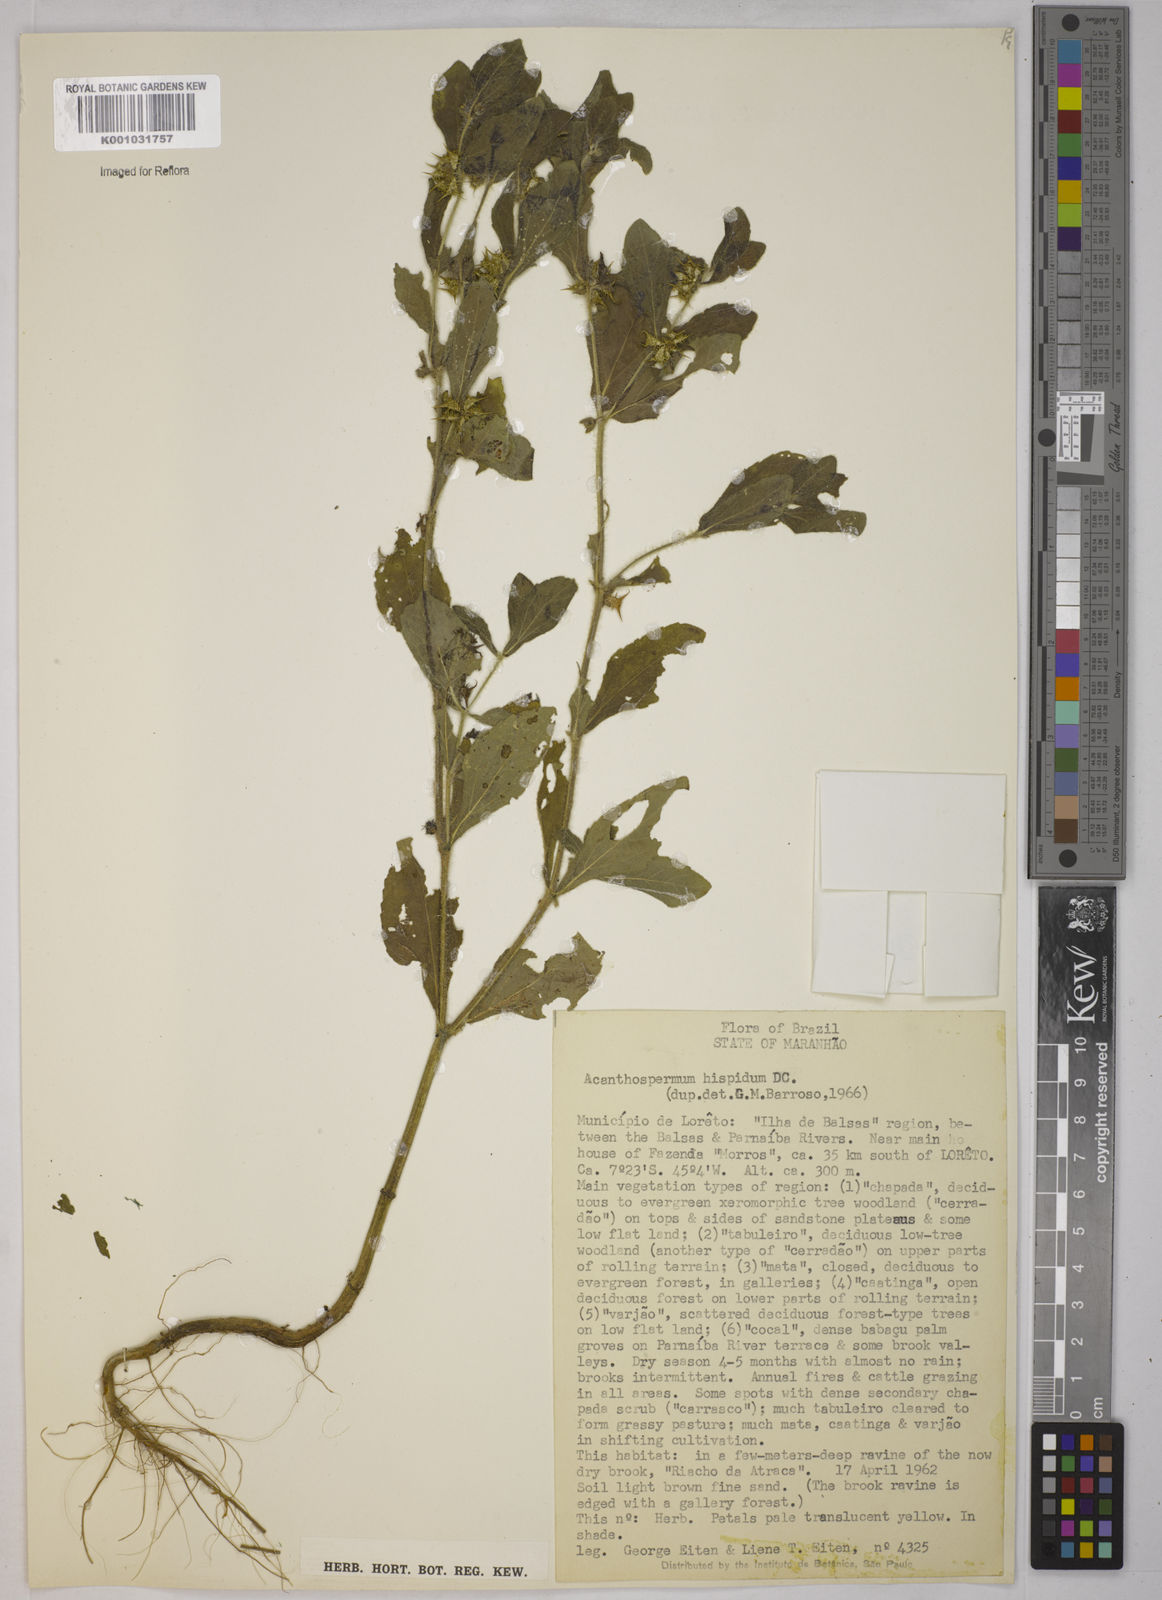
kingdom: Plantae
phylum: Tracheophyta
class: Magnoliopsida
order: Asterales
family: Asteraceae
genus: Acanthospermum
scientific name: Acanthospermum hispidum
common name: Hispid starbur
